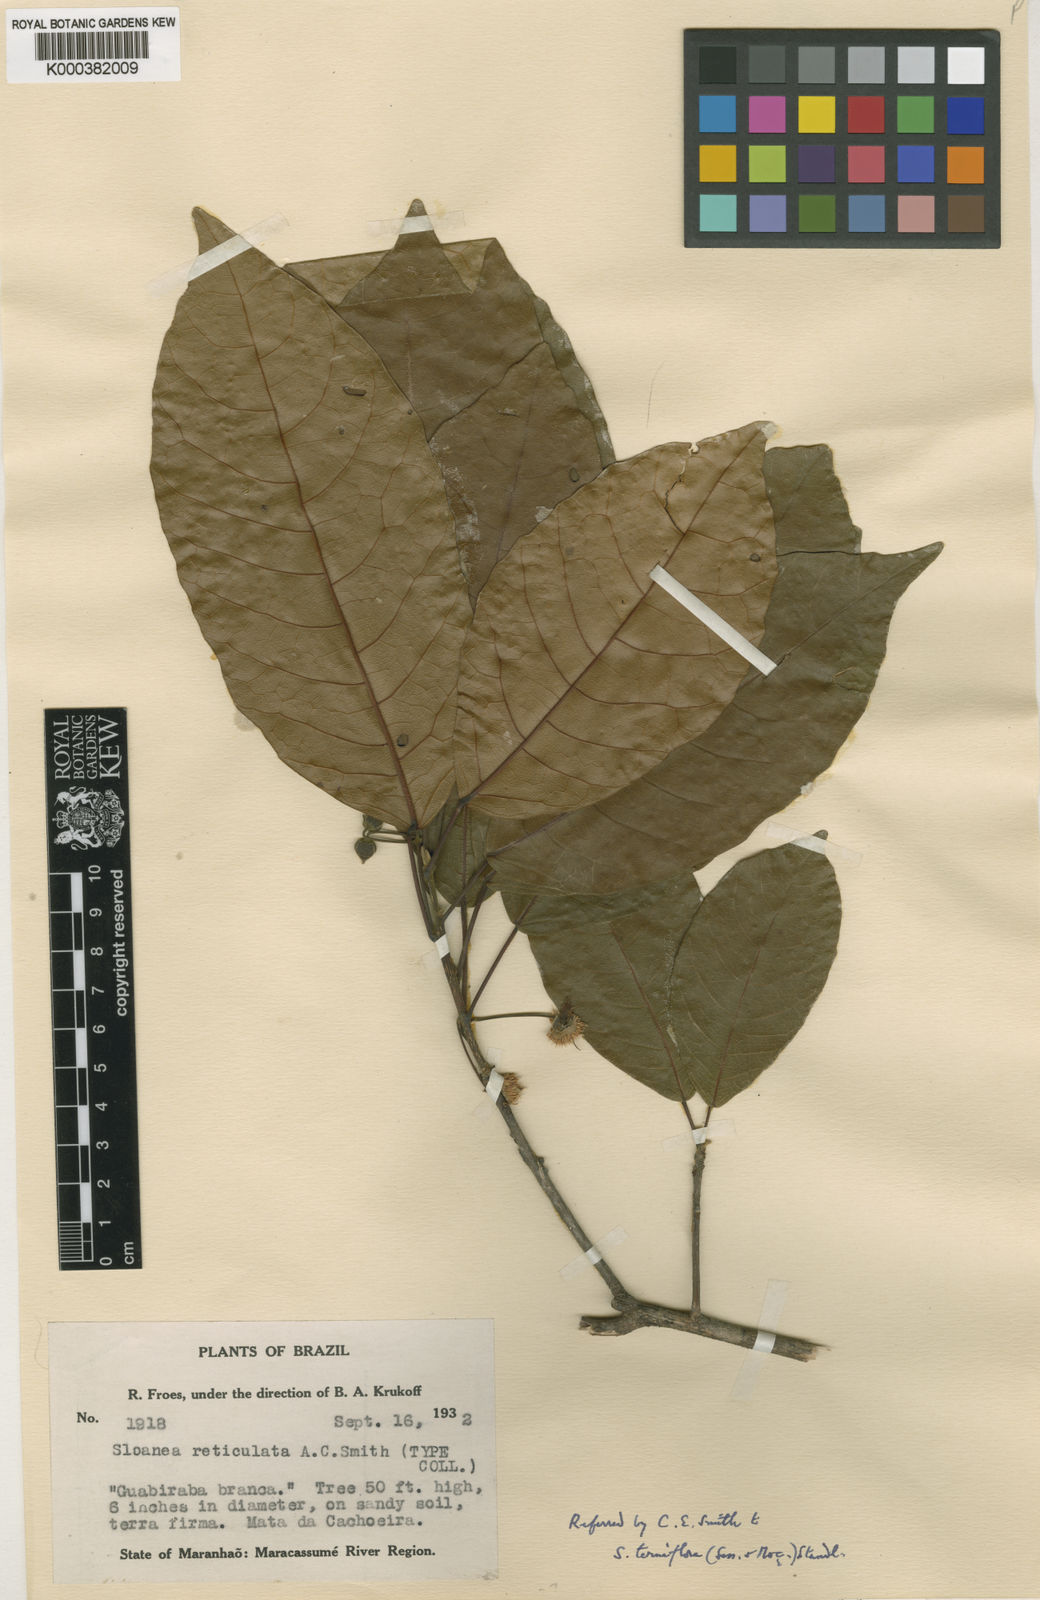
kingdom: Plantae
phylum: Tracheophyta
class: Magnoliopsida
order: Oxalidales
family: Elaeocarpaceae
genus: Sloanea
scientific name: Sloanea
